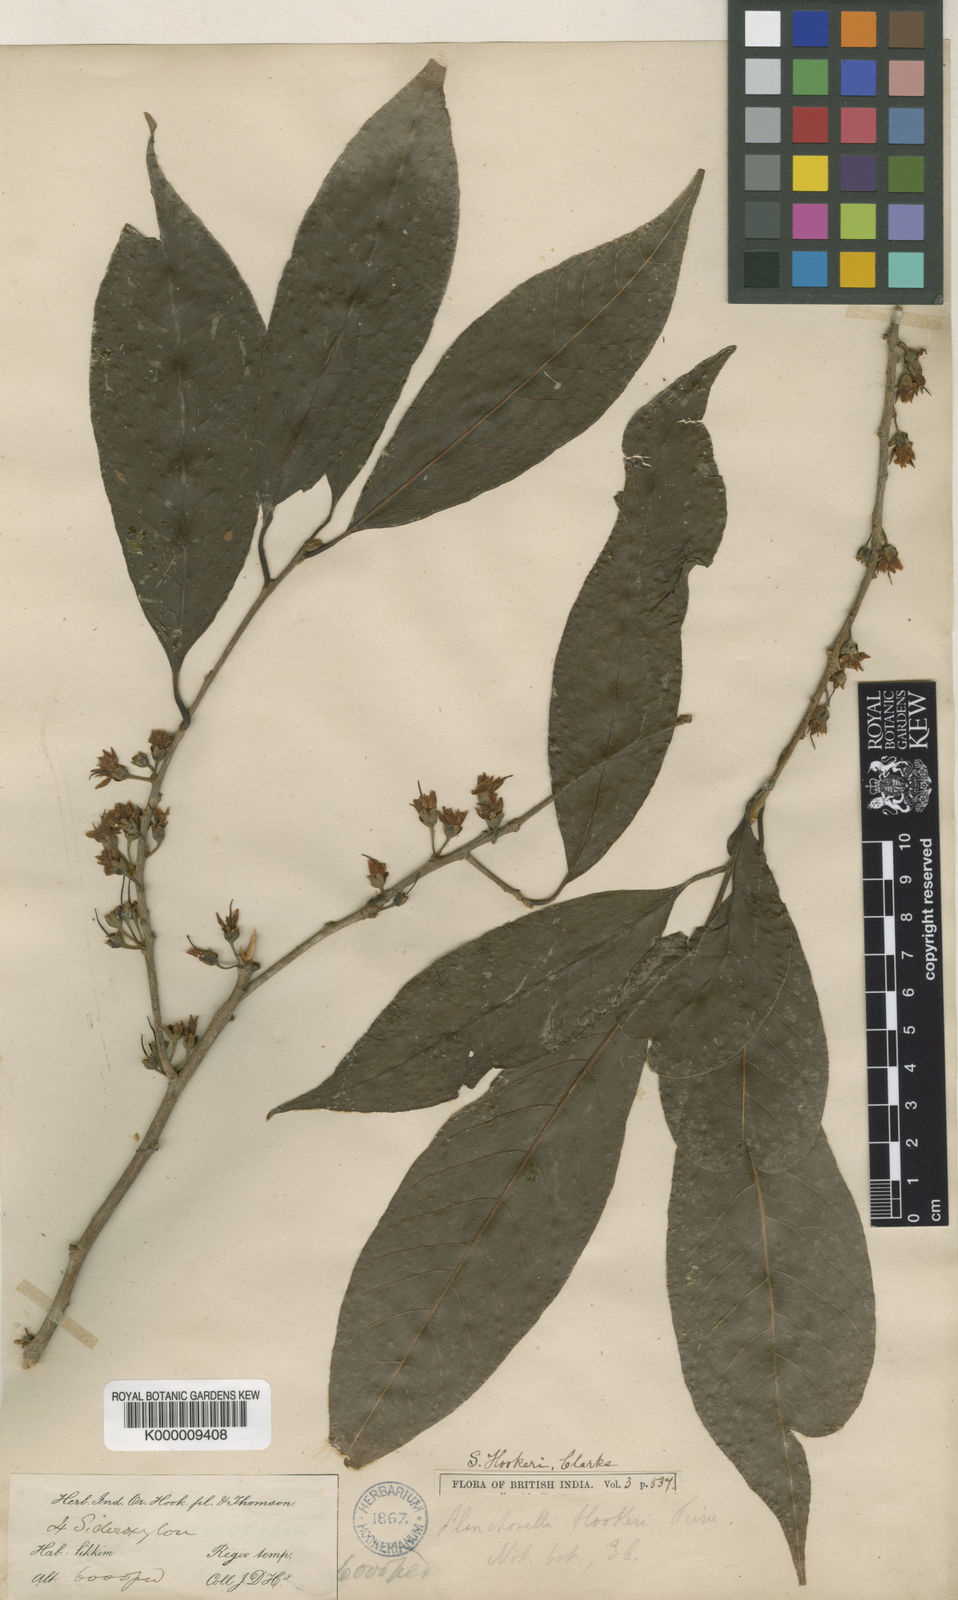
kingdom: Plantae
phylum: Tracheophyta
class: Magnoliopsida
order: Ericales
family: Sapotaceae
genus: Xantolis
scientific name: Xantolis hookeri
